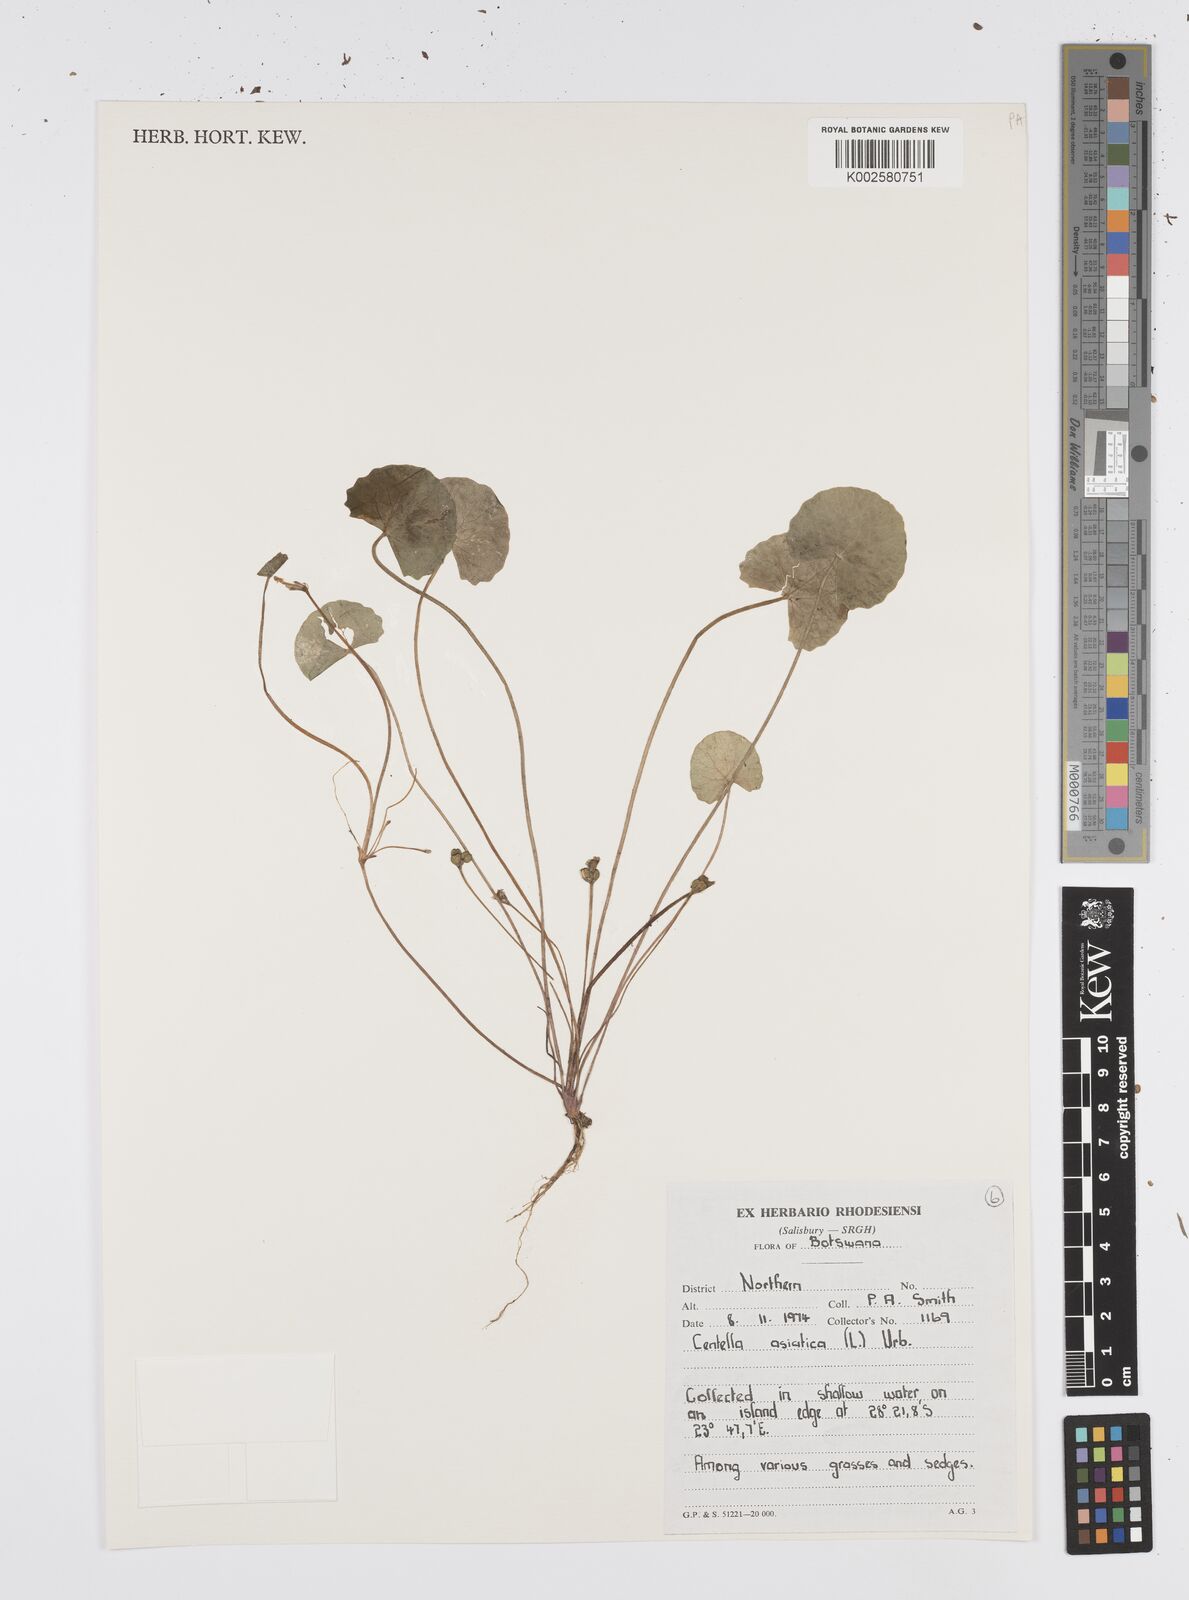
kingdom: Plantae
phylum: Tracheophyta
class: Magnoliopsida
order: Apiales
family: Apiaceae
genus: Centella
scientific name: Centella asiatica
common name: Spadeleaf
